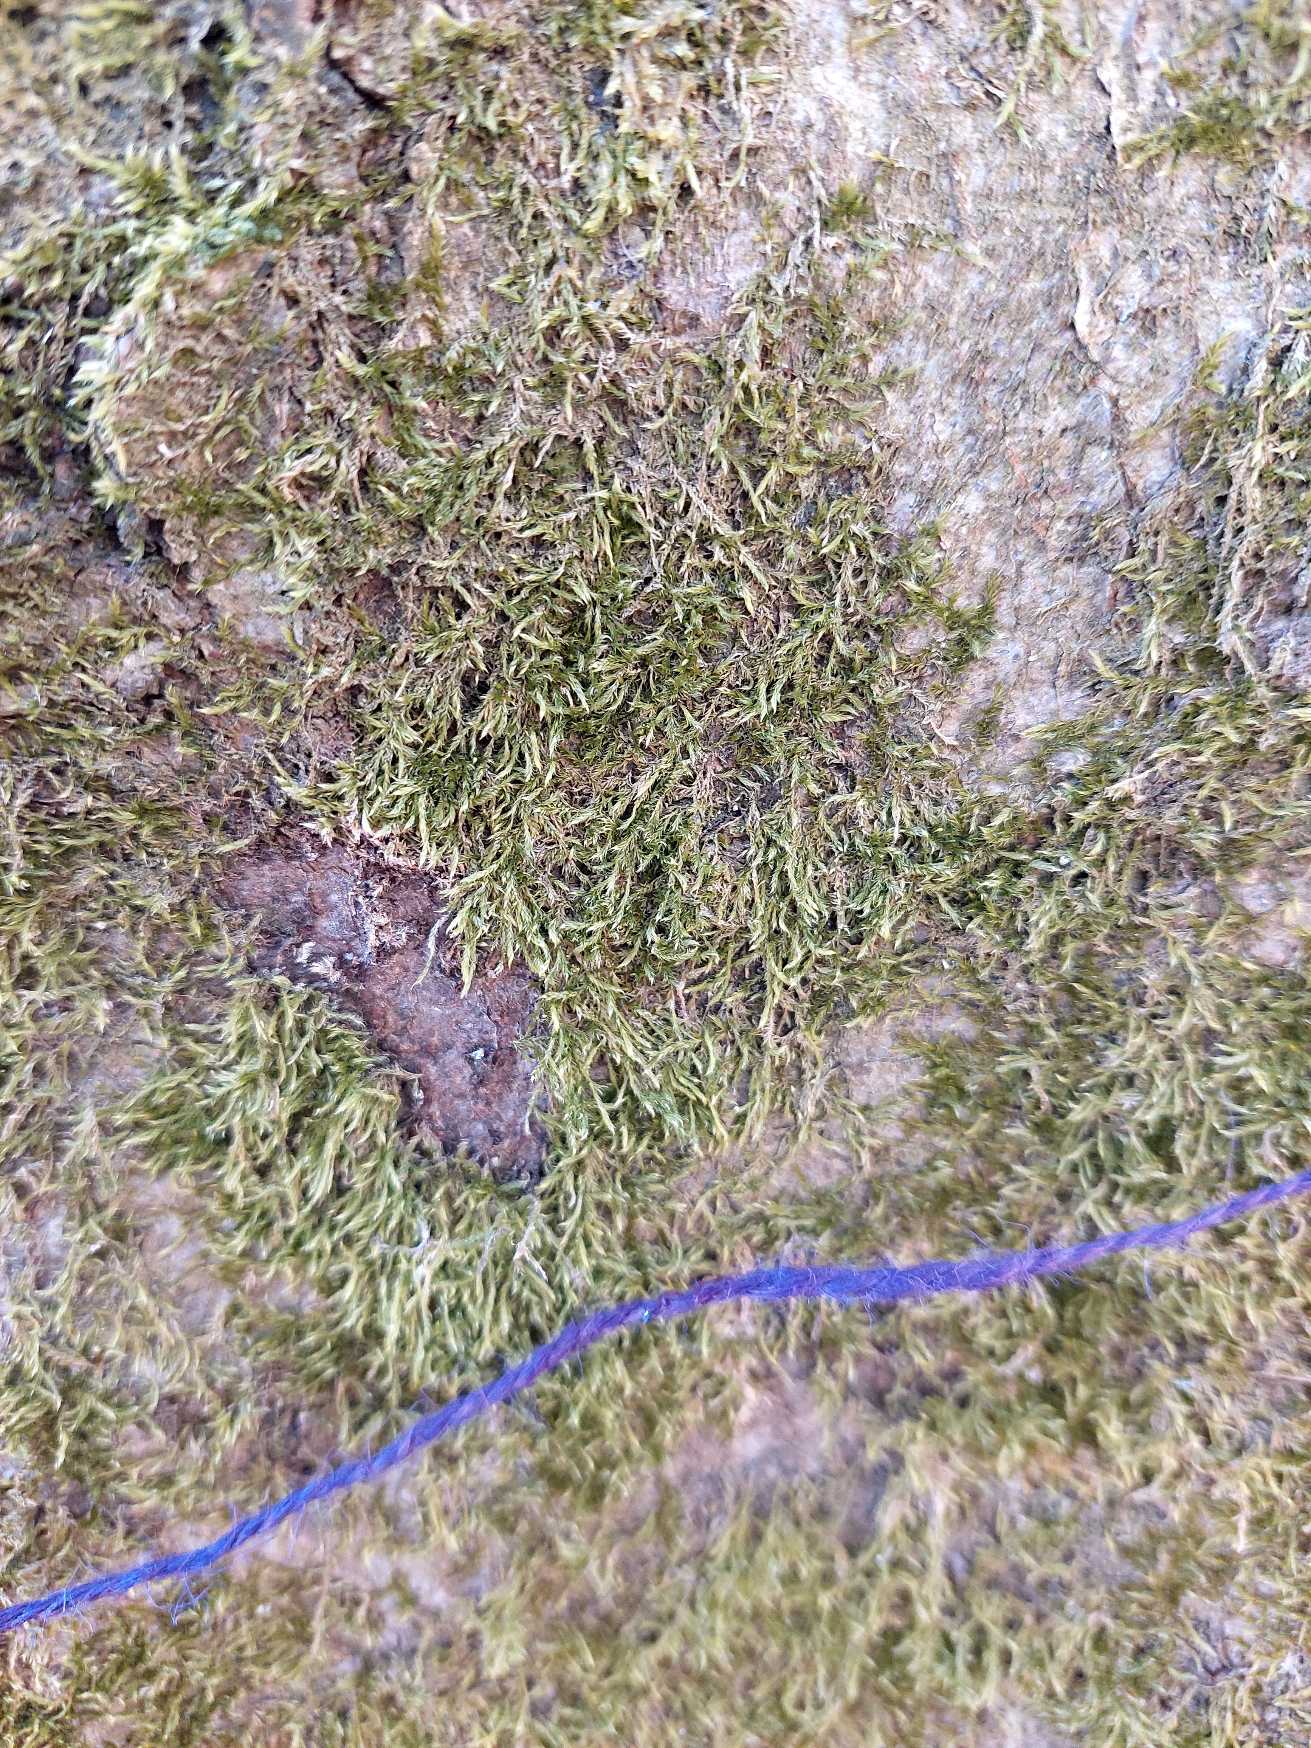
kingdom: Plantae
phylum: Bryophyta
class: Bryopsida
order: Hypnales
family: Hypnaceae
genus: Hypnum
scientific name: Hypnum
